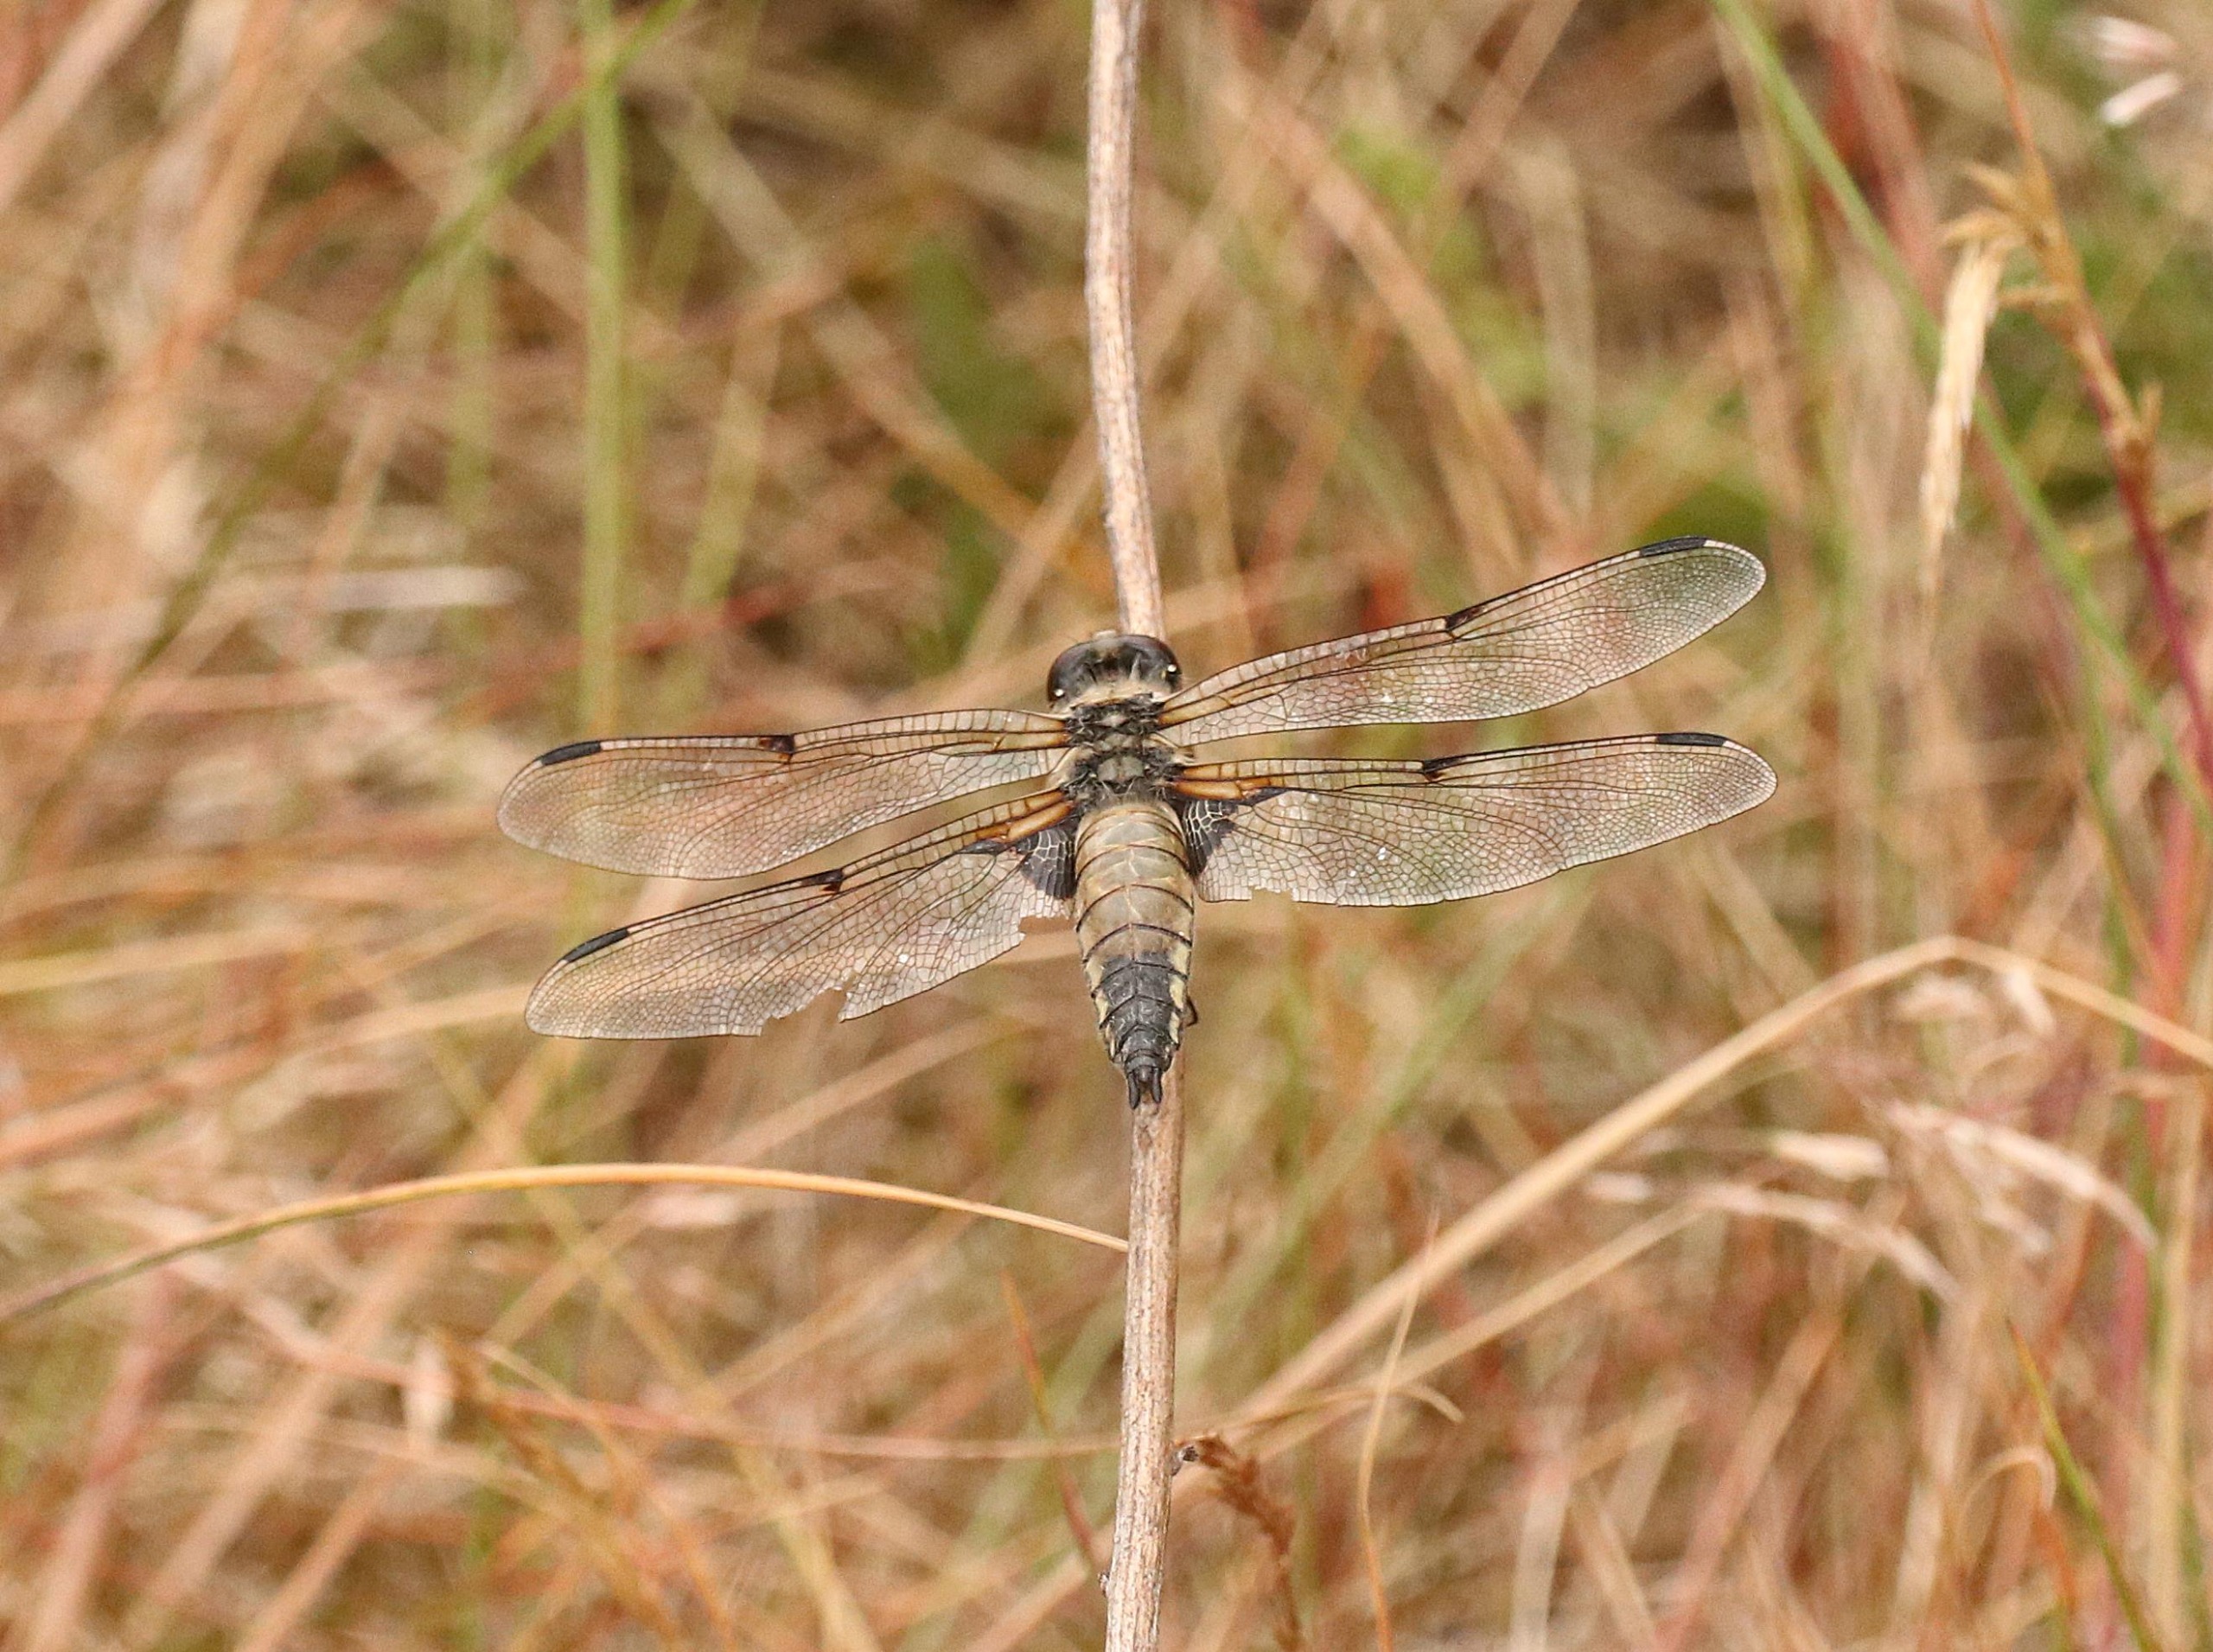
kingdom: Animalia
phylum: Arthropoda
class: Insecta
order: Odonata
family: Libellulidae
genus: Libellula
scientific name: Libellula quadrimaculata
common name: Fireplettet libel
